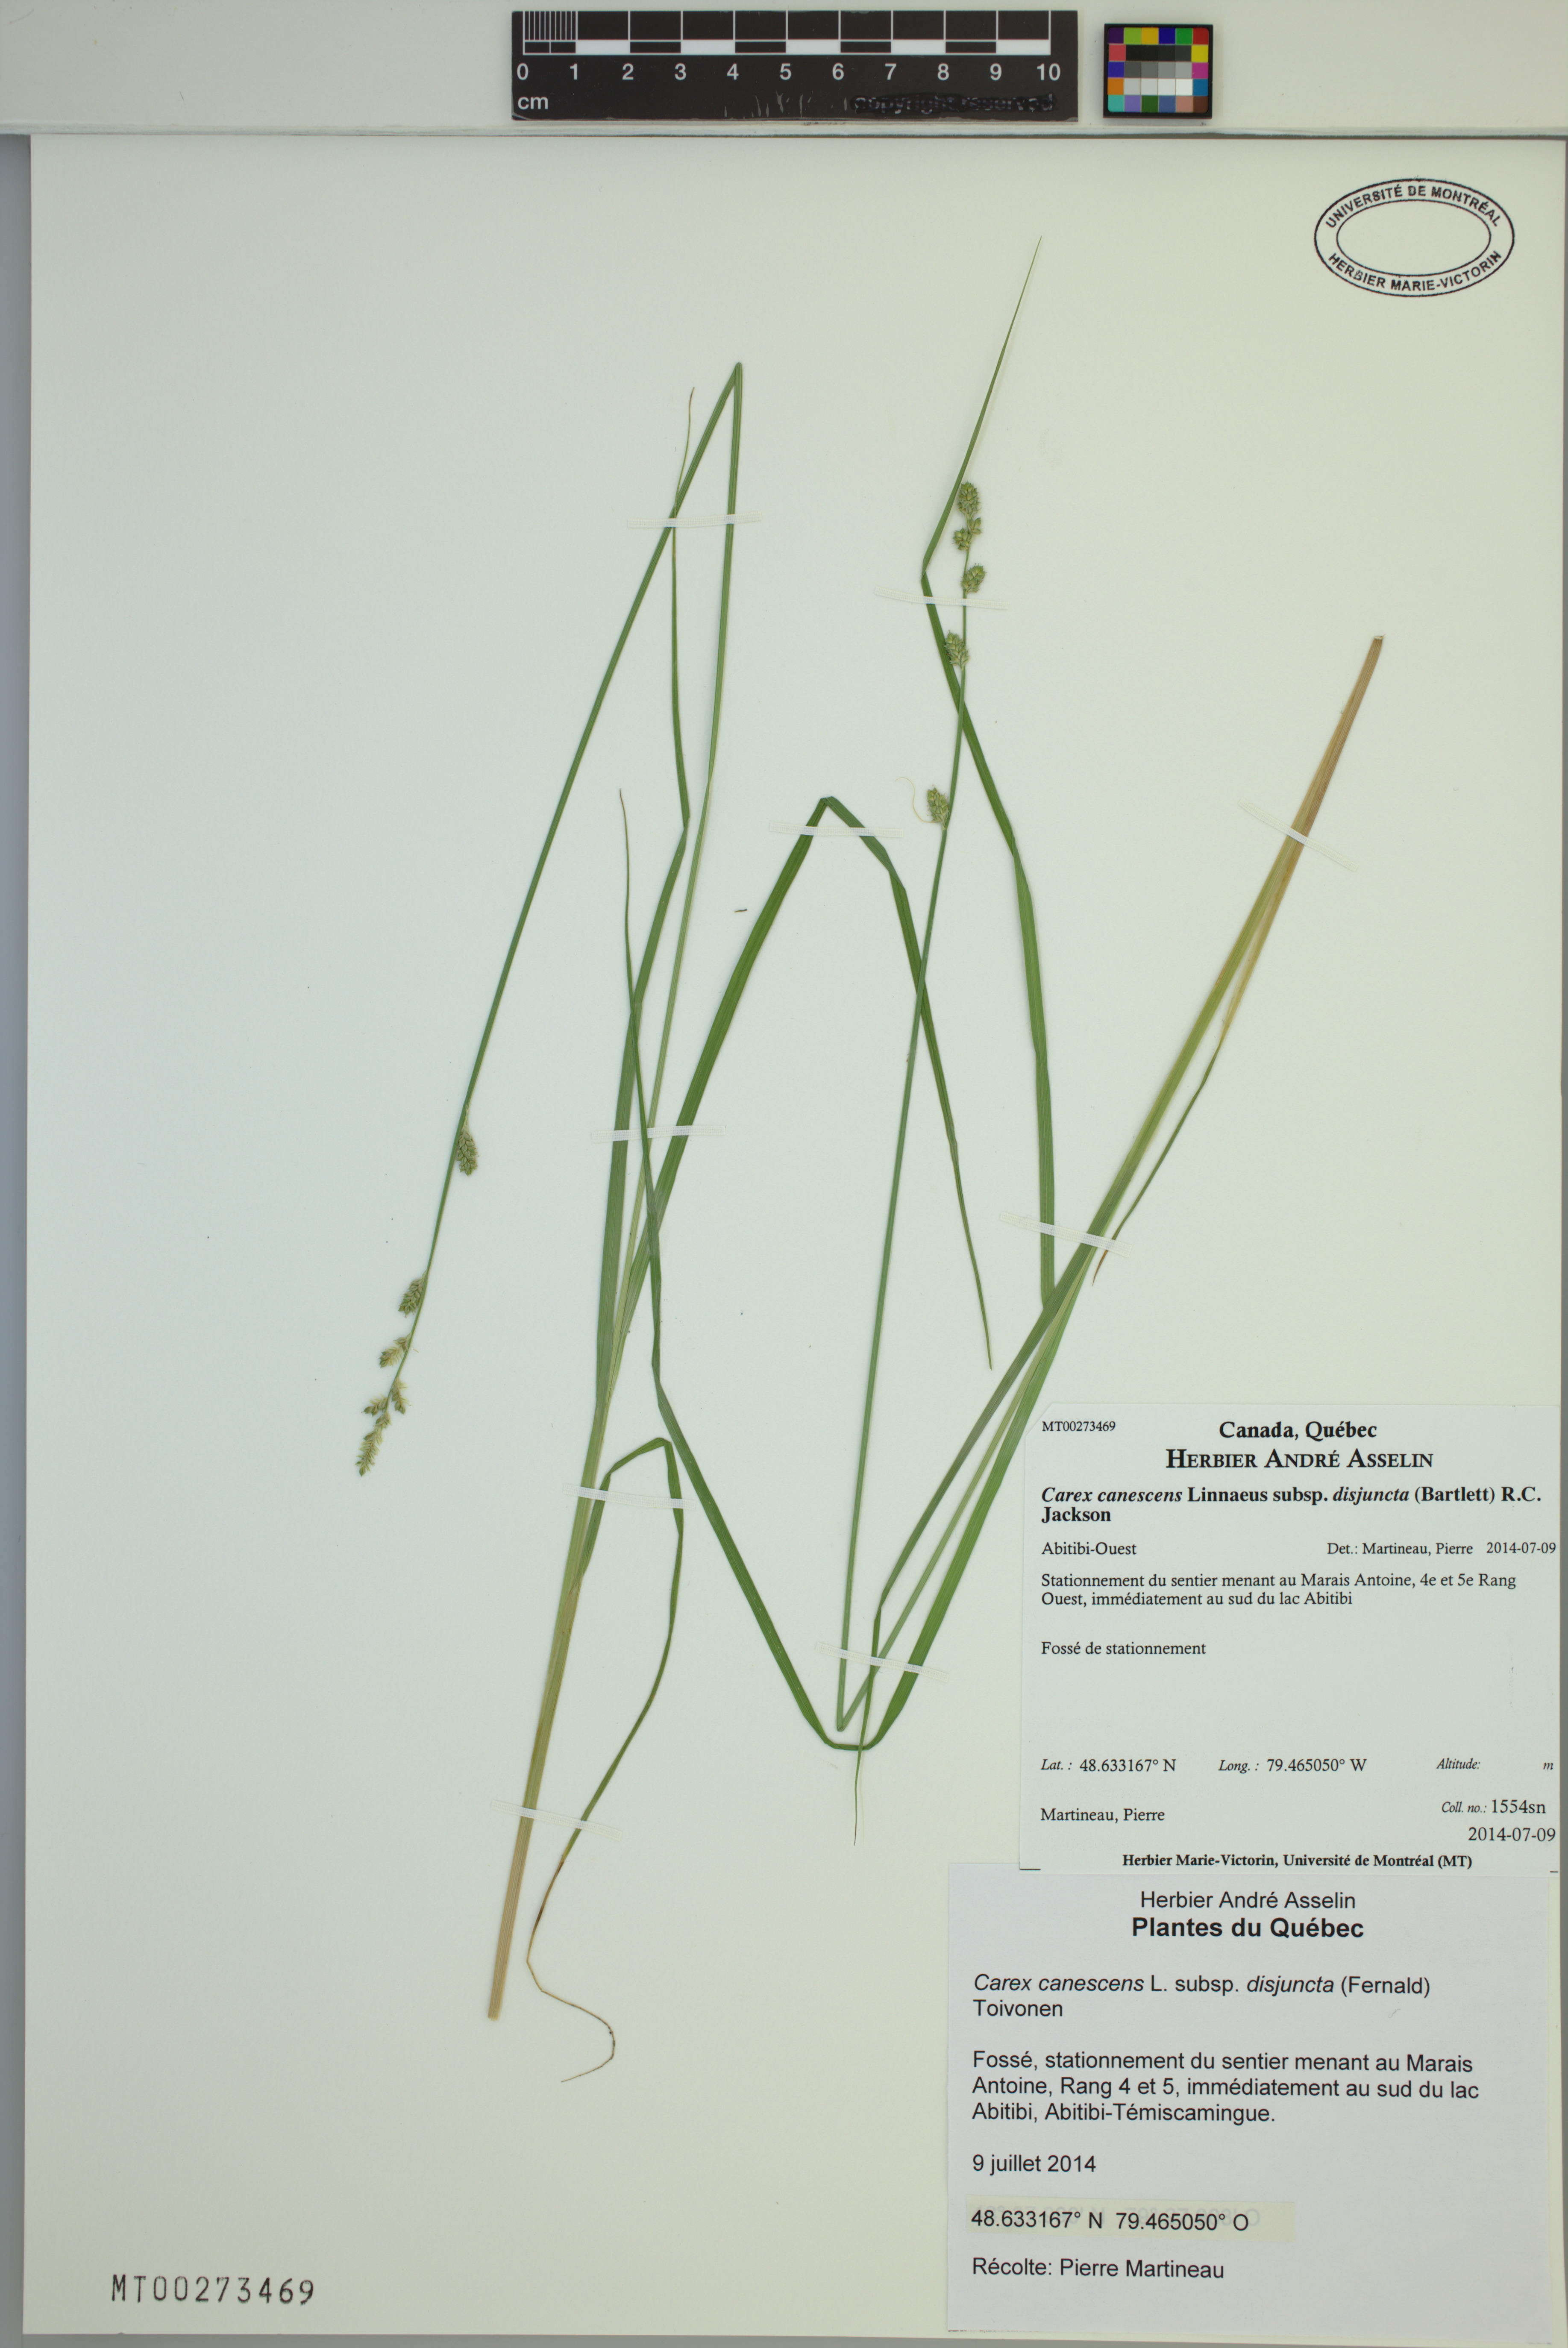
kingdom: Plantae
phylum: Tracheophyta
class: Liliopsida
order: Poales
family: Cyperaceae
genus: Carex
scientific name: Carex canescens
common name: White sedge
